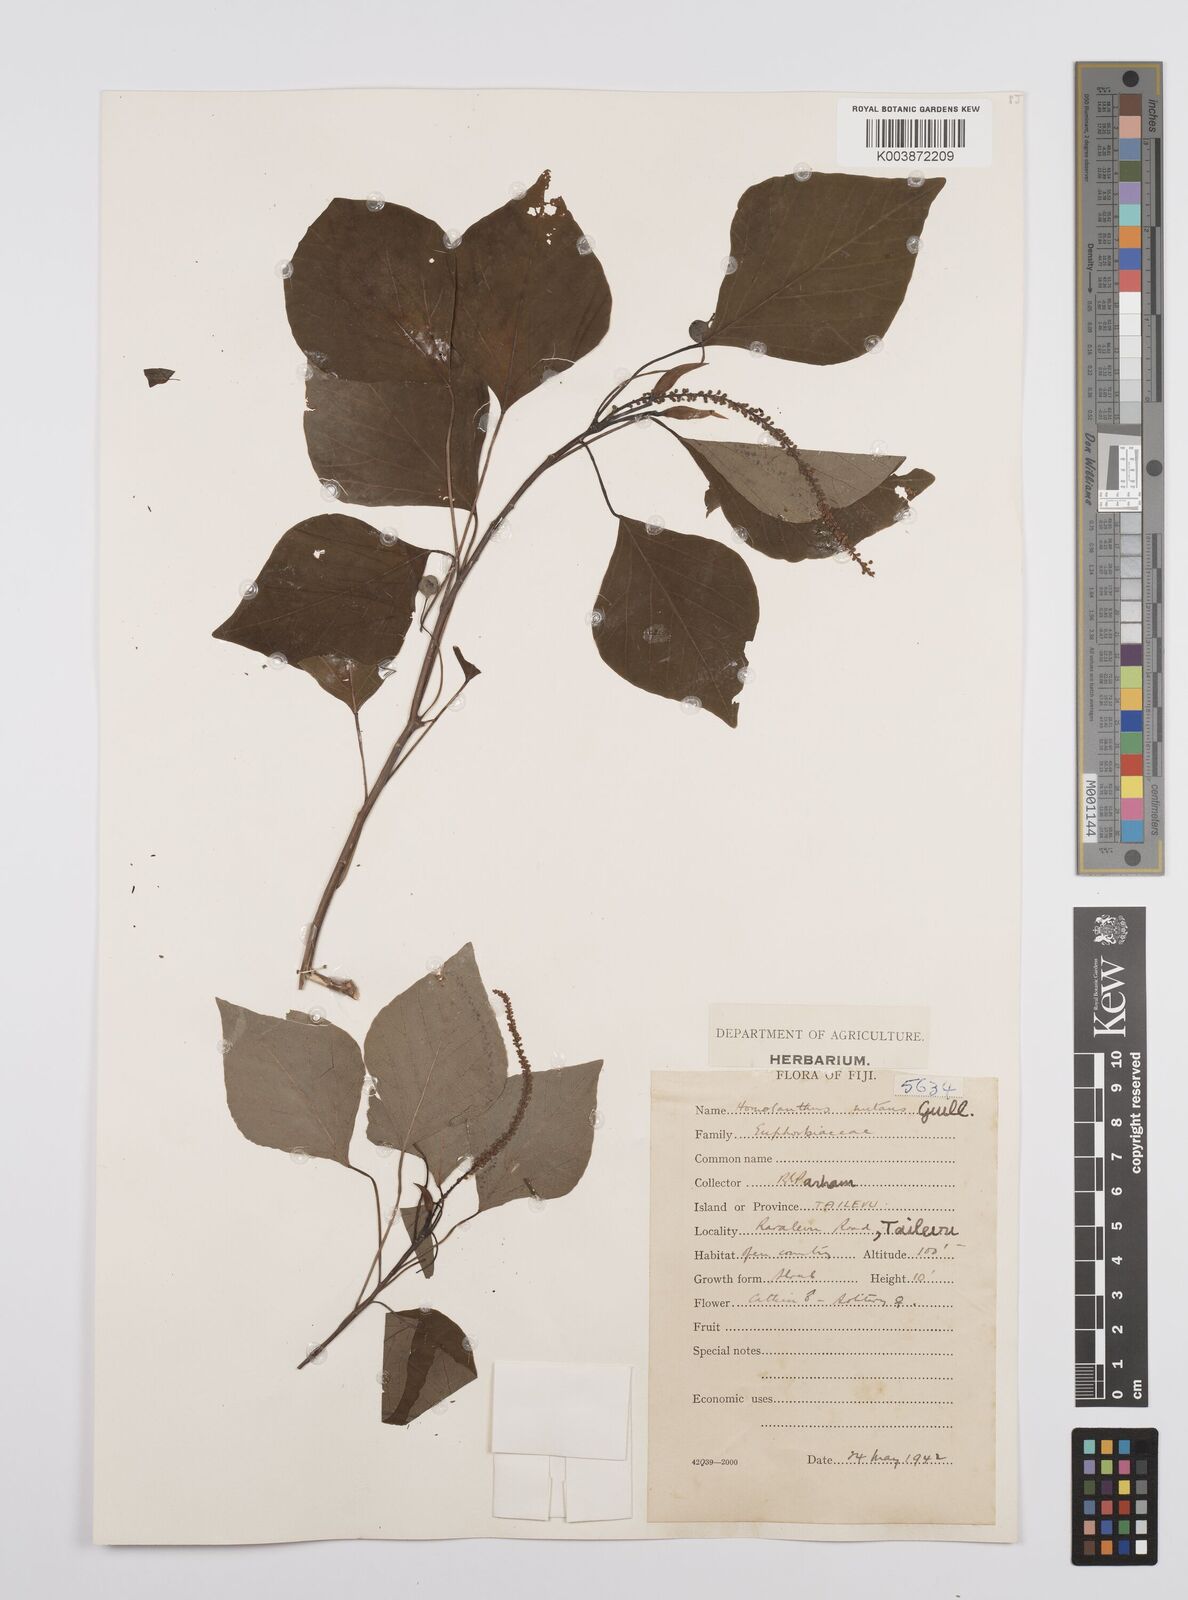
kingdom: Plantae
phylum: Tracheophyta
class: Magnoliopsida
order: Malpighiales
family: Euphorbiaceae
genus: Homalanthus
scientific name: Homalanthus nutans
